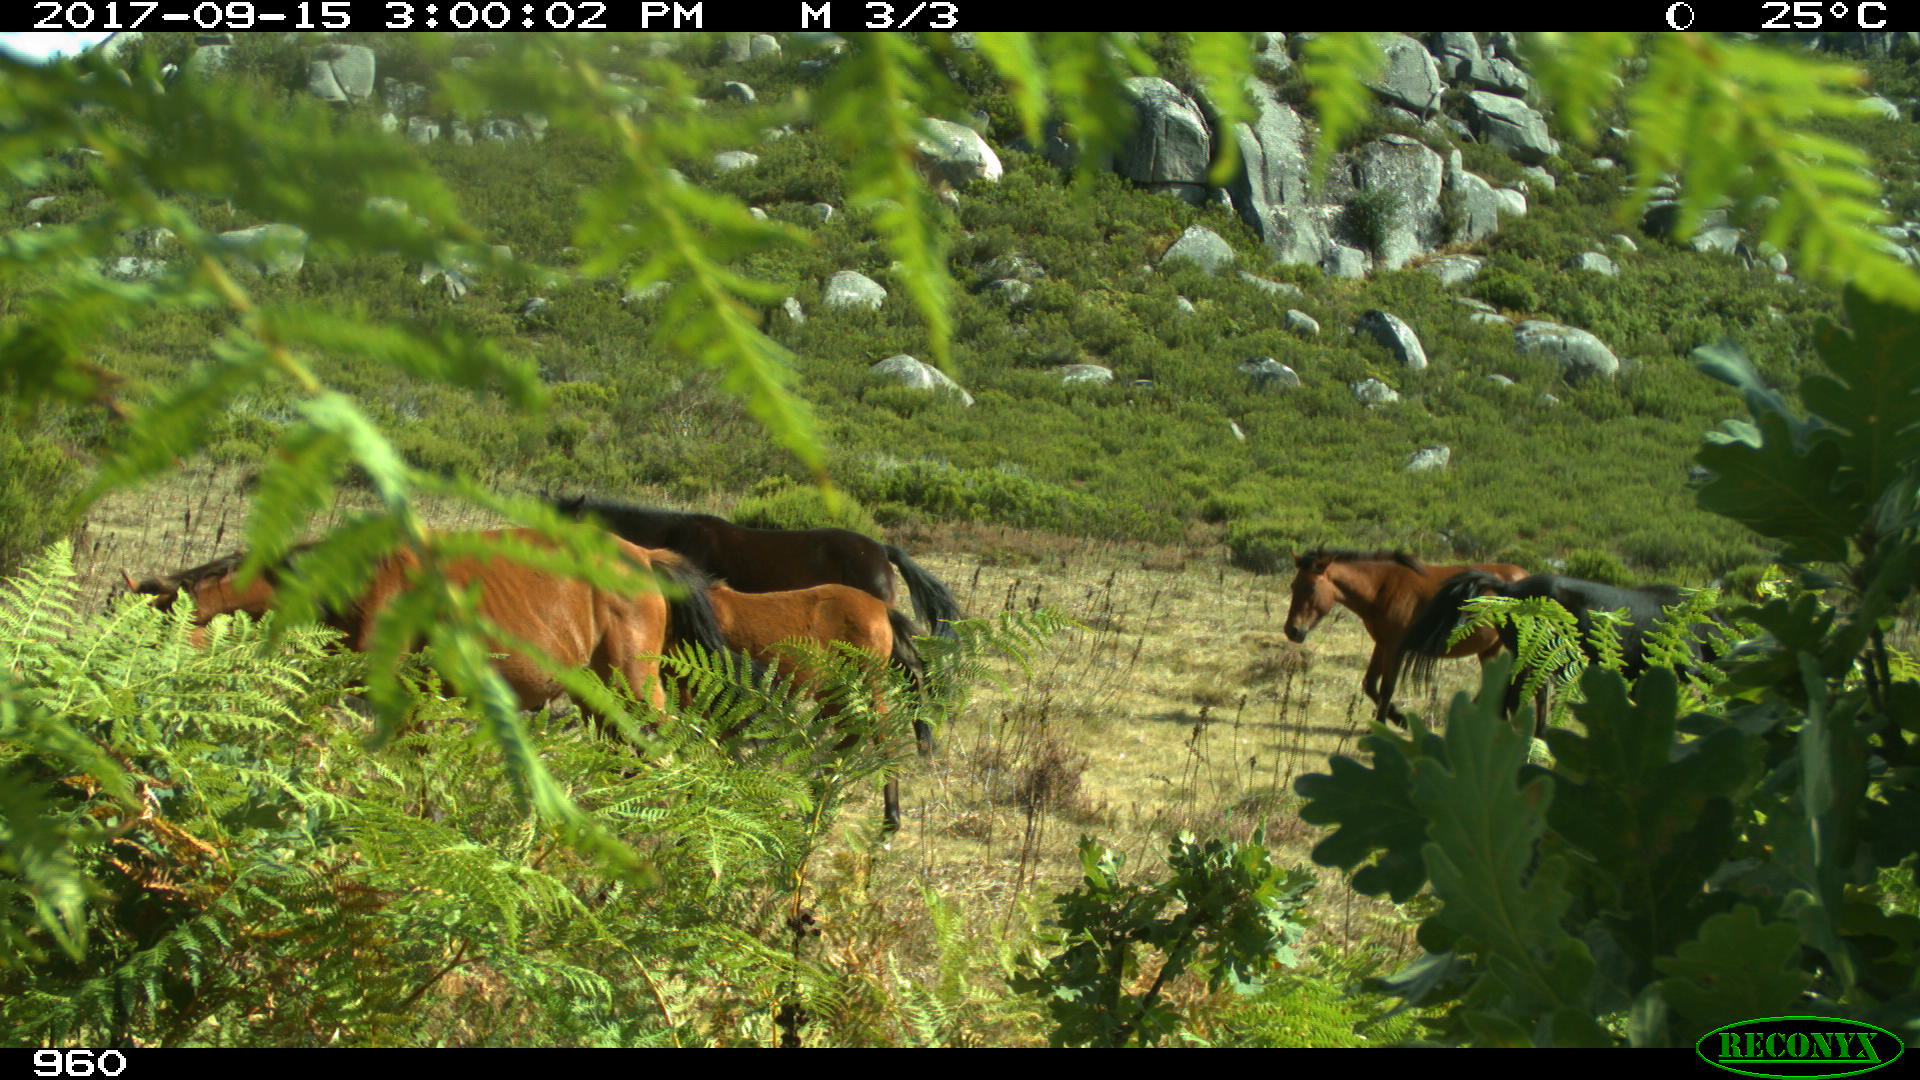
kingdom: Animalia
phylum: Chordata
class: Mammalia
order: Perissodactyla
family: Equidae
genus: Equus
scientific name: Equus caballus
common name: Horse
